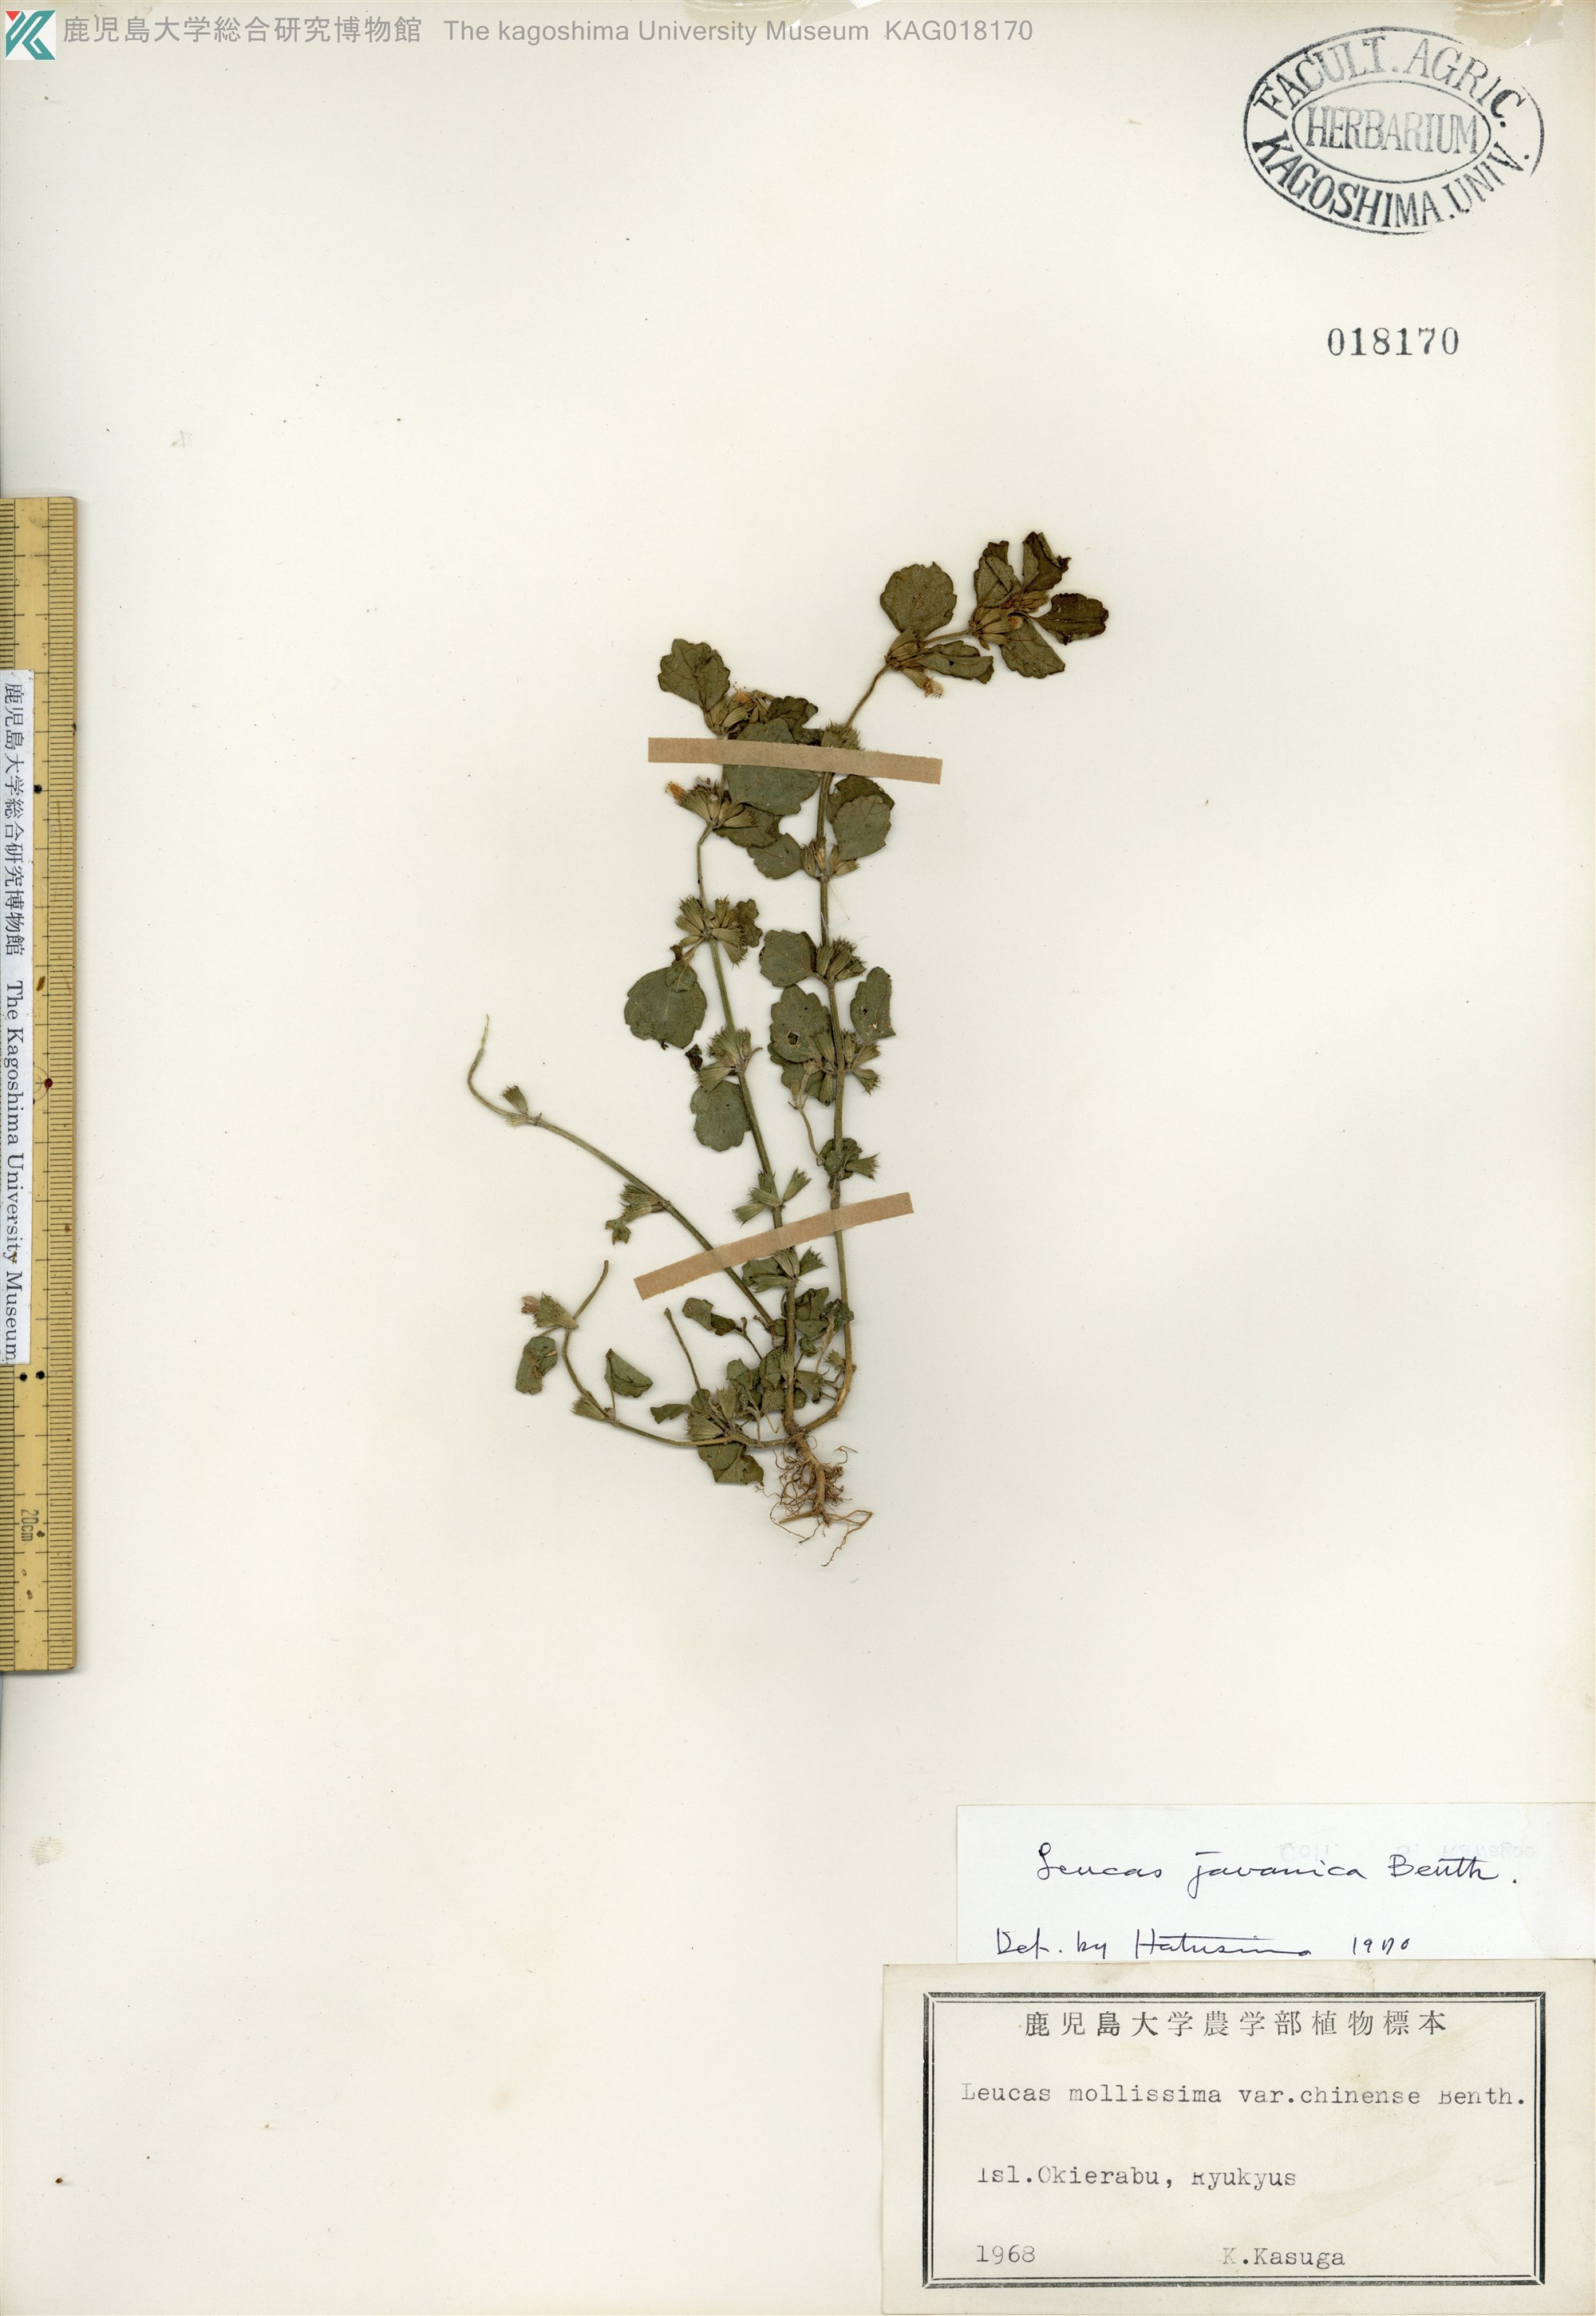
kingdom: Plantae
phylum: Tracheophyta
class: Magnoliopsida
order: Lamiales
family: Lamiaceae
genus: Leucas
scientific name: Leucas chinensis
